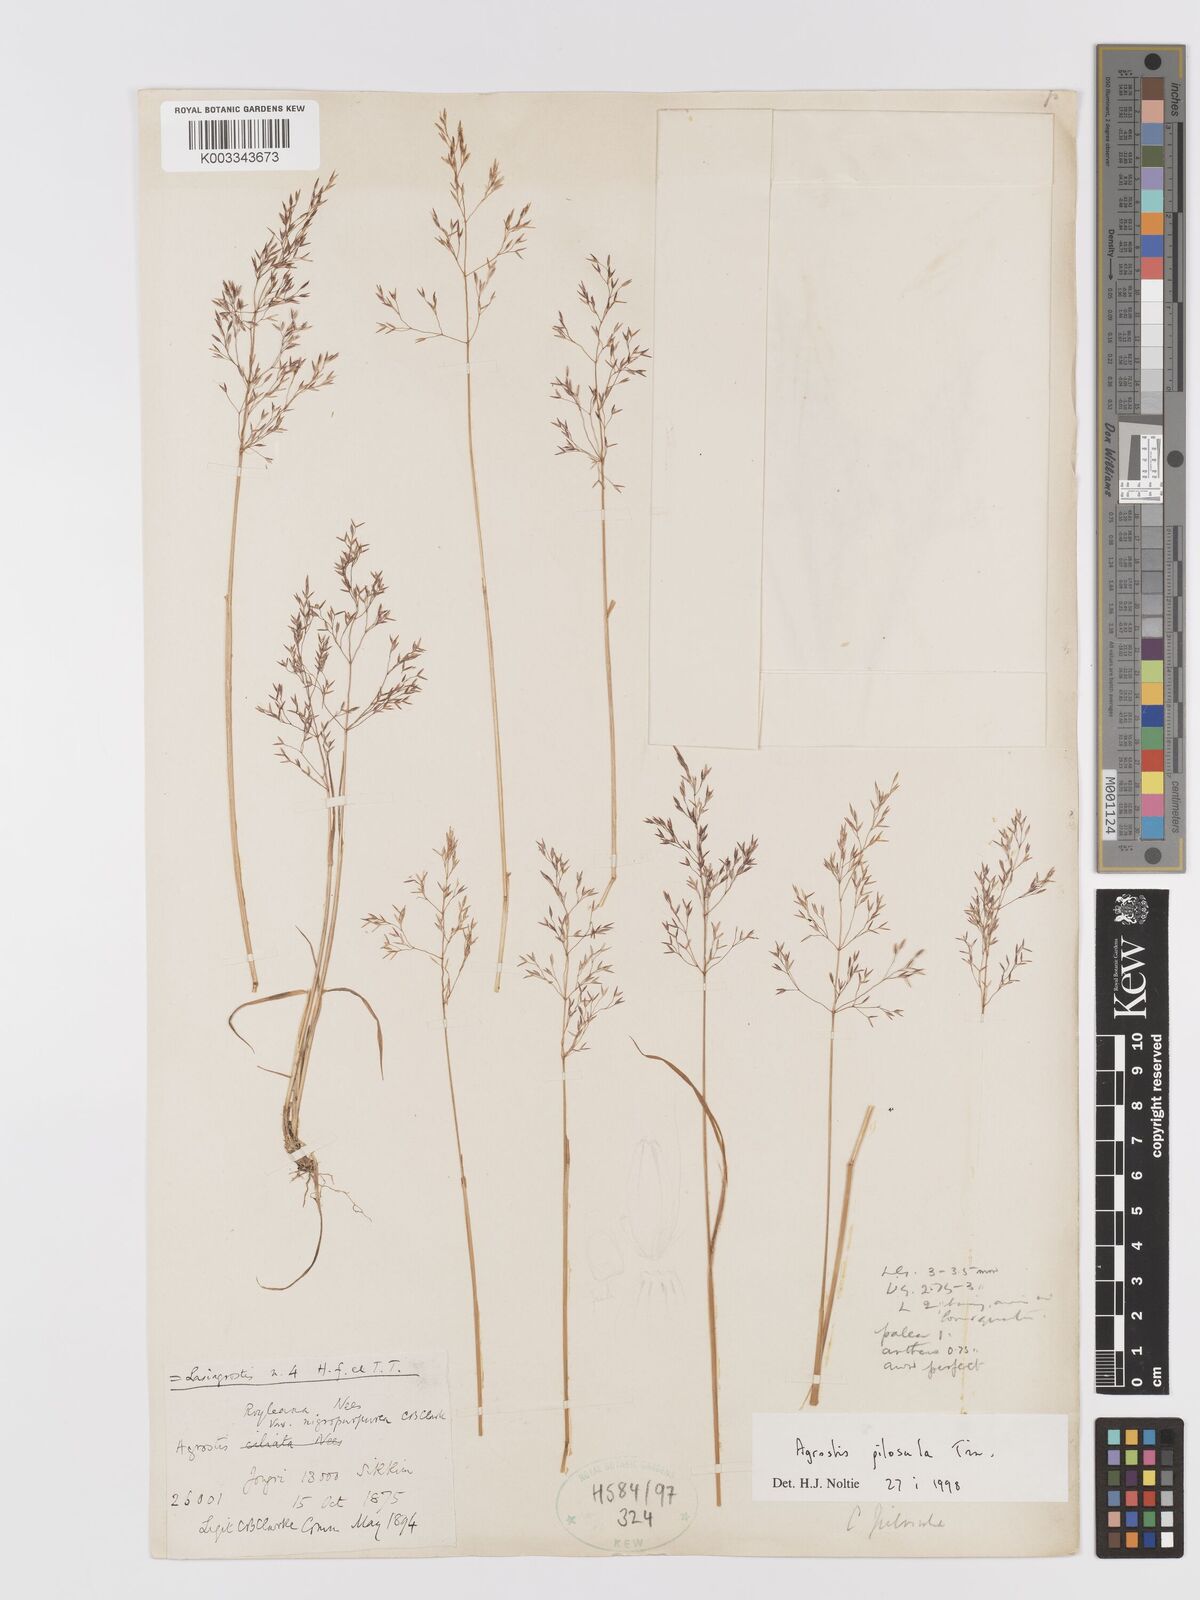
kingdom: Plantae
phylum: Tracheophyta
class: Liliopsida
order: Poales
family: Poaceae
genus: Agrostis
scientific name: Agrostis pilosula
